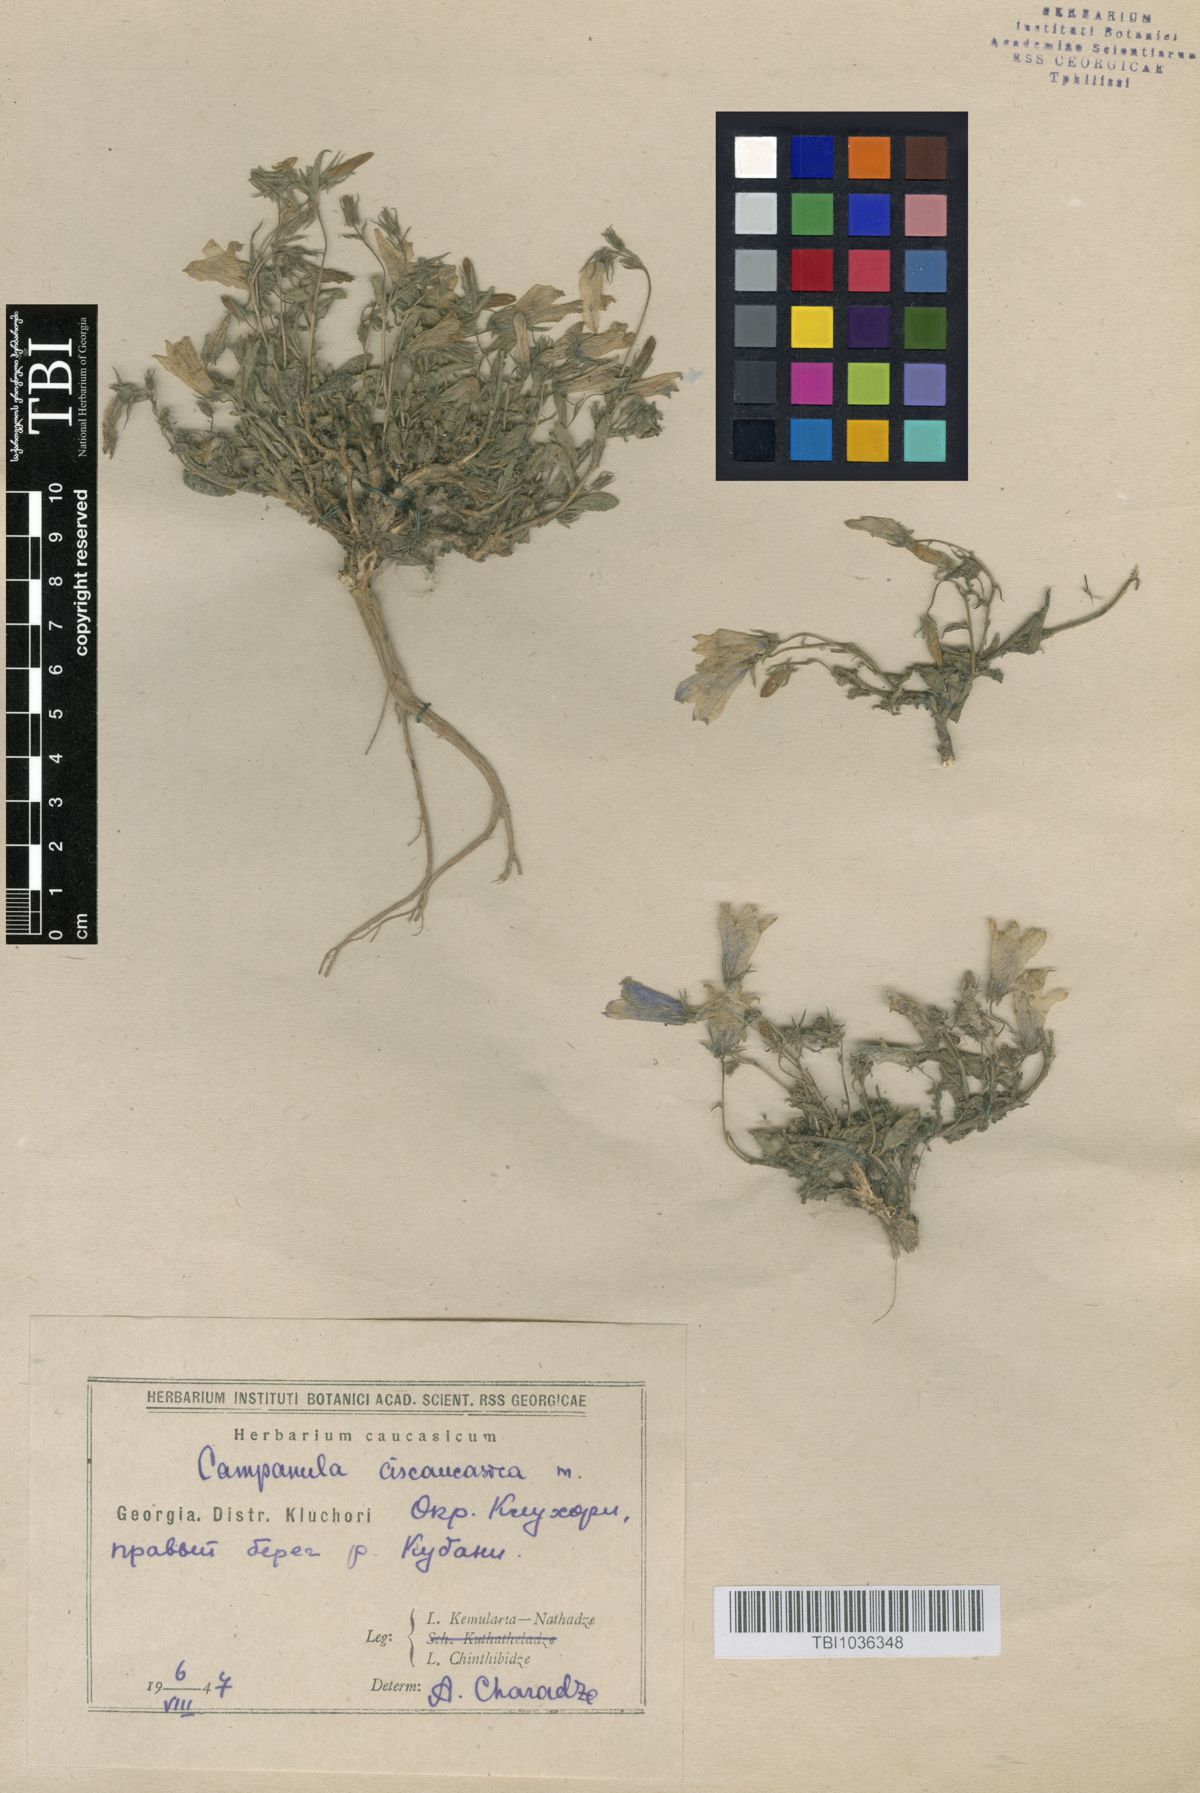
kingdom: Plantae
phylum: Tracheophyta
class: Magnoliopsida
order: Asterales
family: Campanulaceae
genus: Campanula
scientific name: Campanula sibirica
